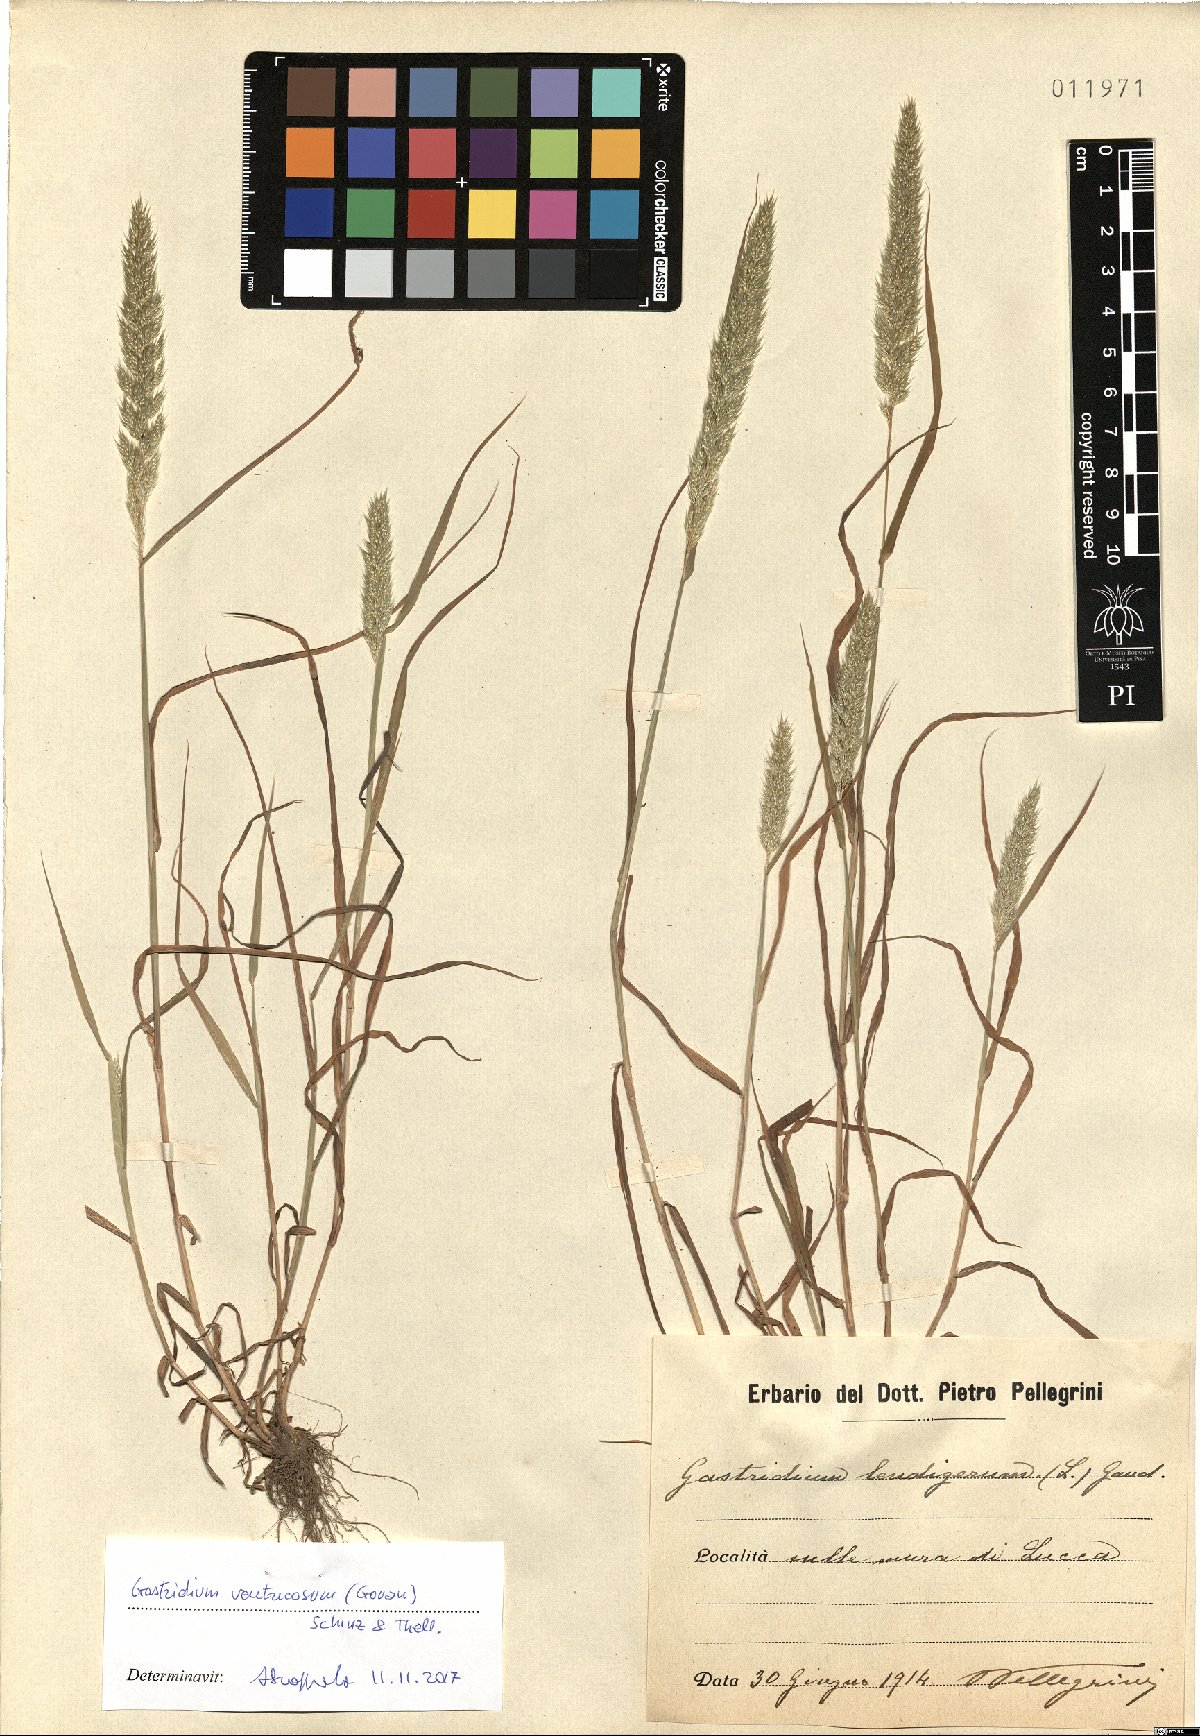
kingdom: Plantae
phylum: Tracheophyta
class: Liliopsida
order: Poales
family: Poaceae
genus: Gastridium
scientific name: Gastridium ventricosum
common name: Nit-grass
